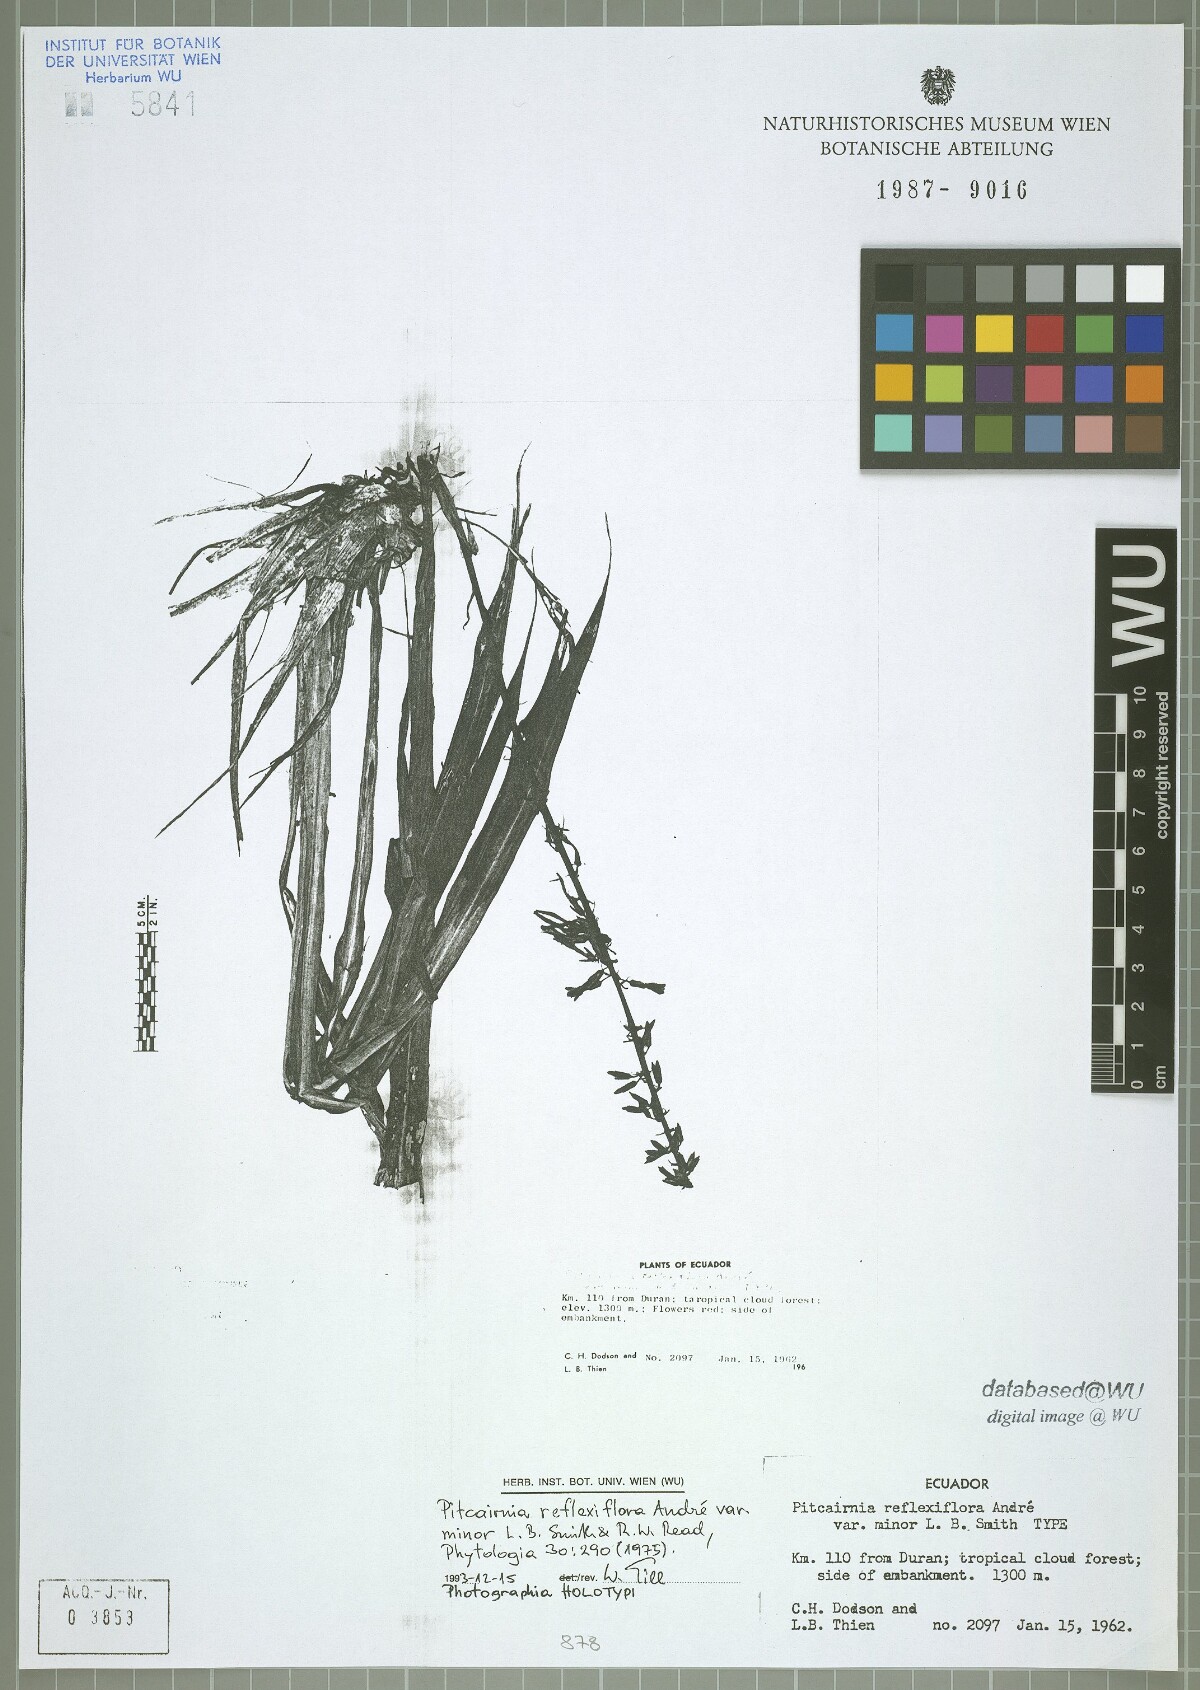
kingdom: Plantae
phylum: Tracheophyta
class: Liliopsida
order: Poales
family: Bromeliaceae
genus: Pitcairnia
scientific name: Pitcairnia reflexiflora
